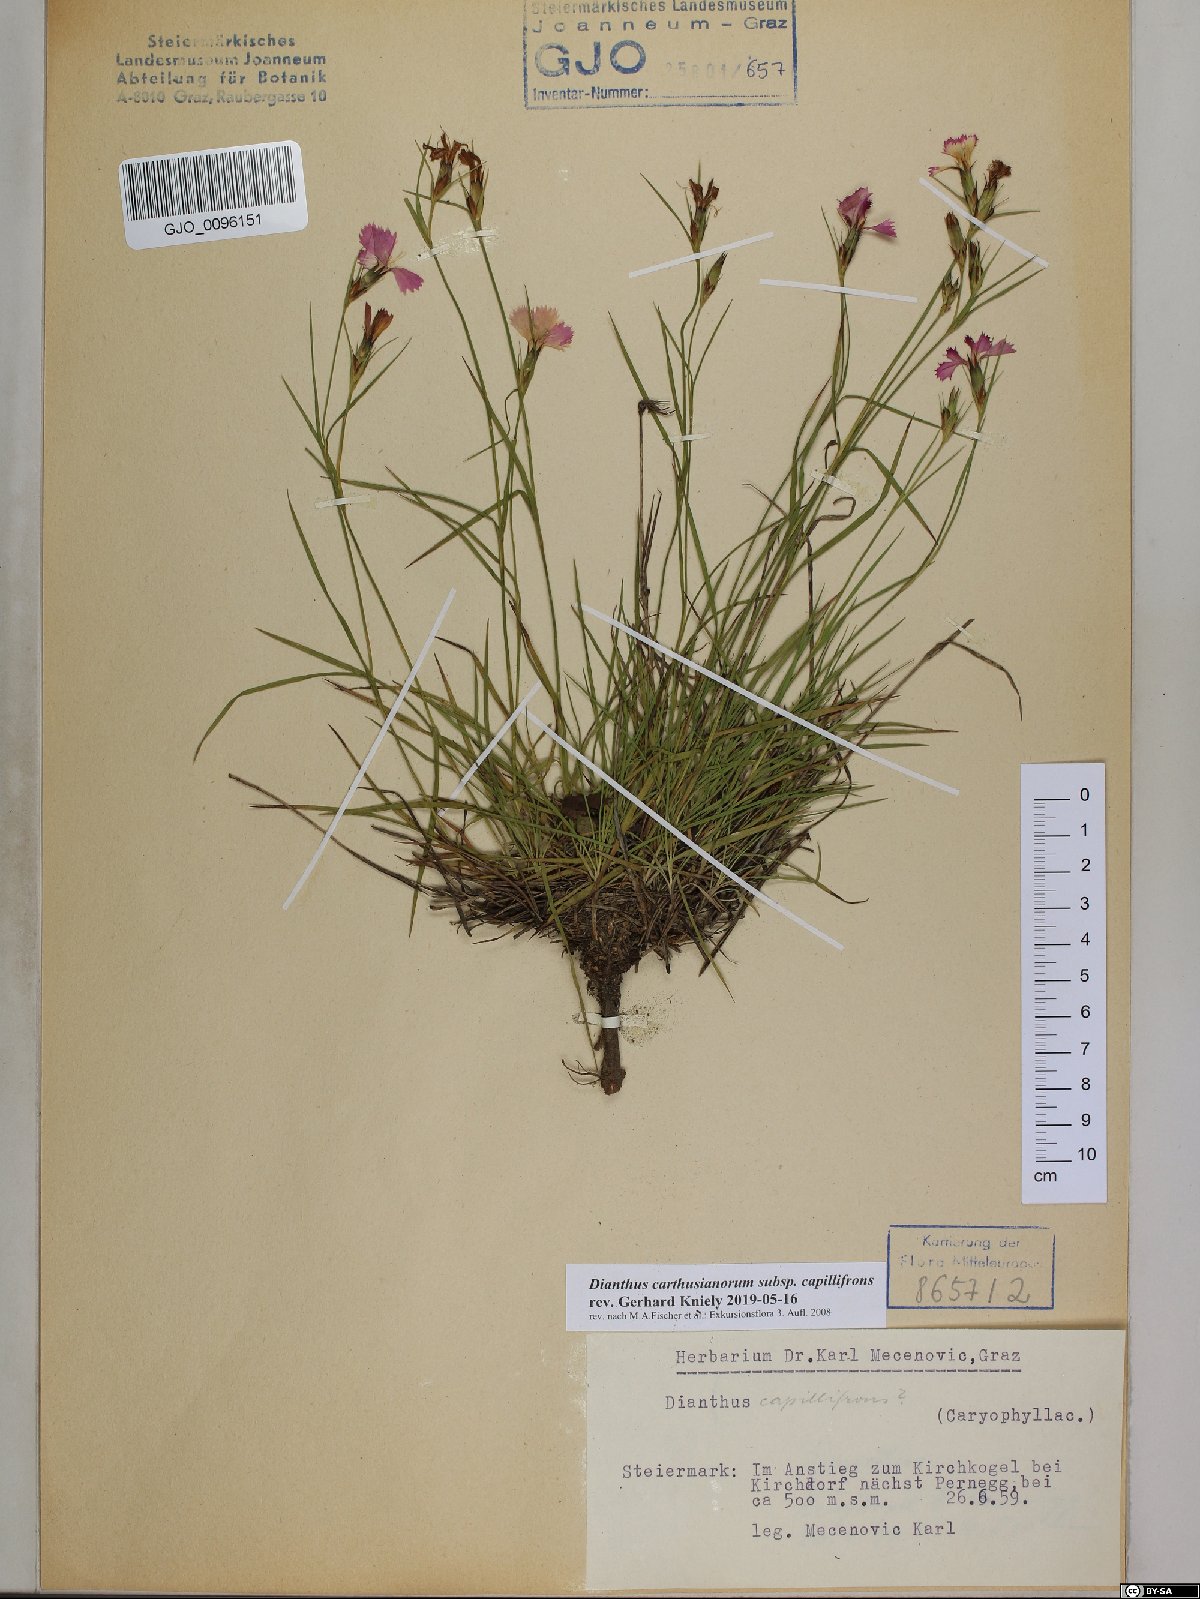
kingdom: Plantae
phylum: Tracheophyta
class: Magnoliopsida
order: Caryophyllales
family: Caryophyllaceae
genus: Dianthus
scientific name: Dianthus carthusianorum
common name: Carthusian pink
